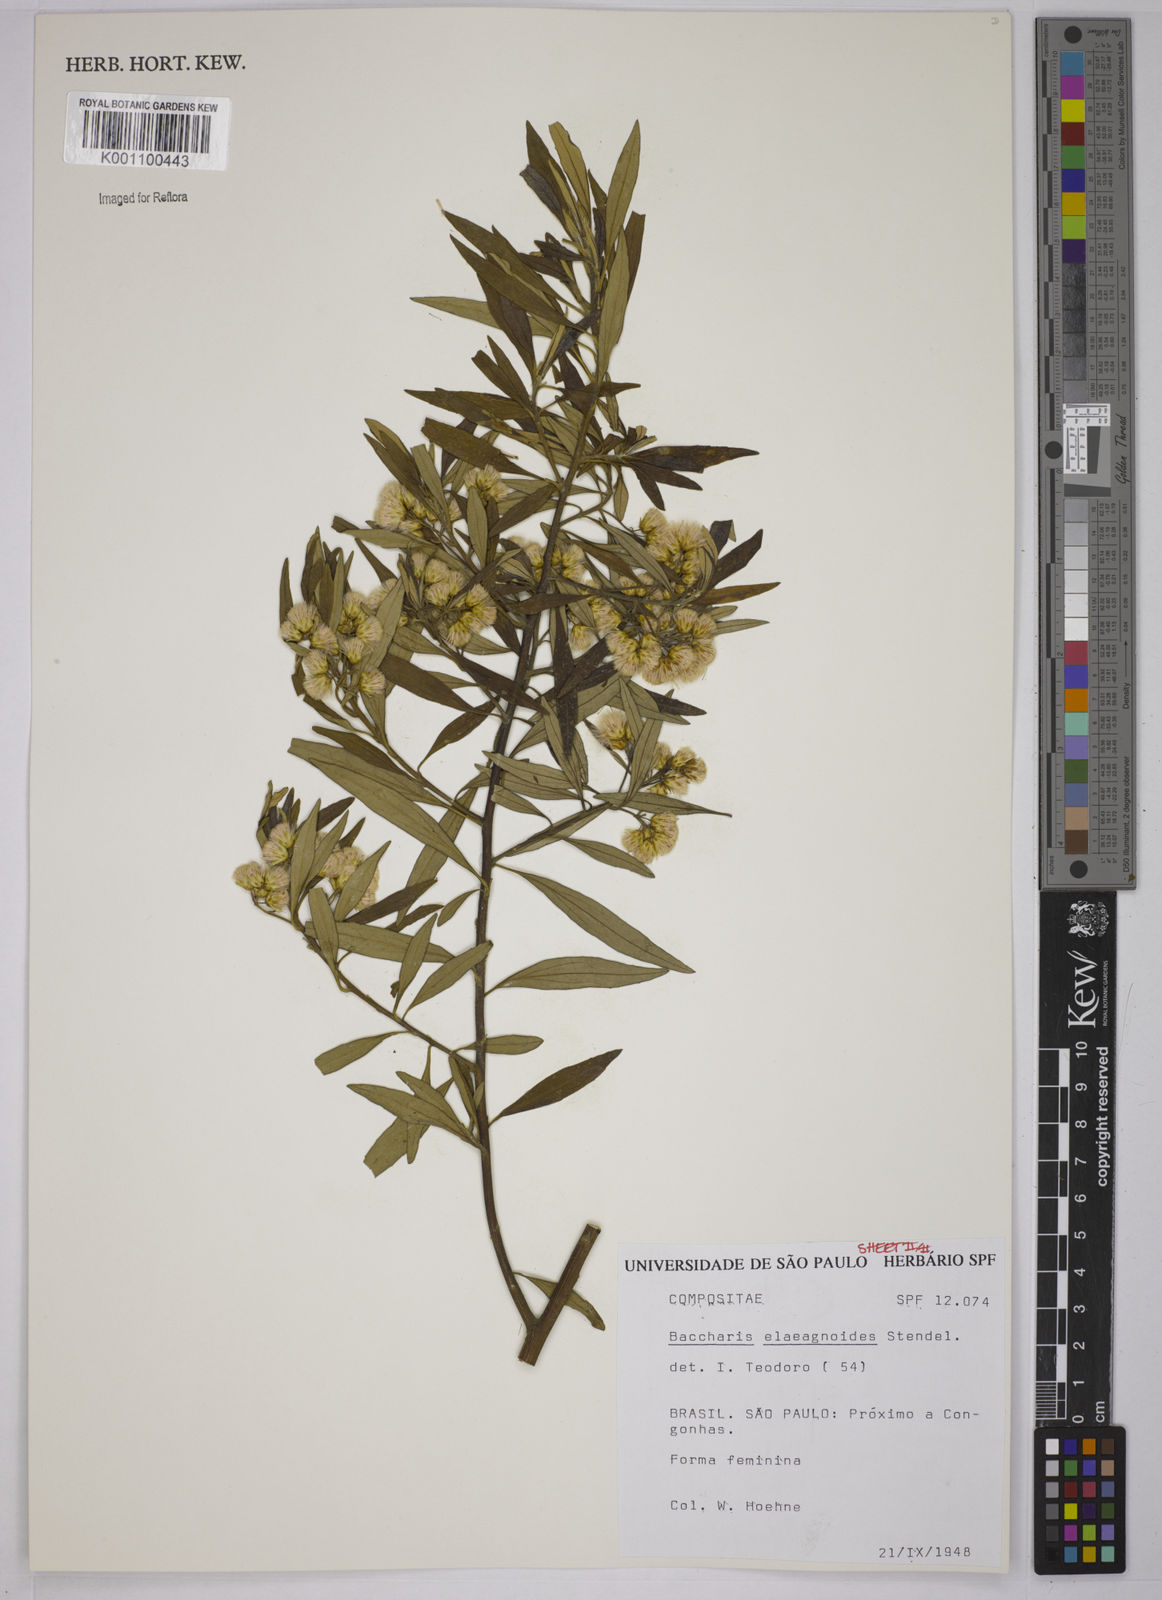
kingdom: Plantae
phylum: Tracheophyta
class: Magnoliopsida
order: Asterales
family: Asteraceae
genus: Baccharis
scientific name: Baccharis
